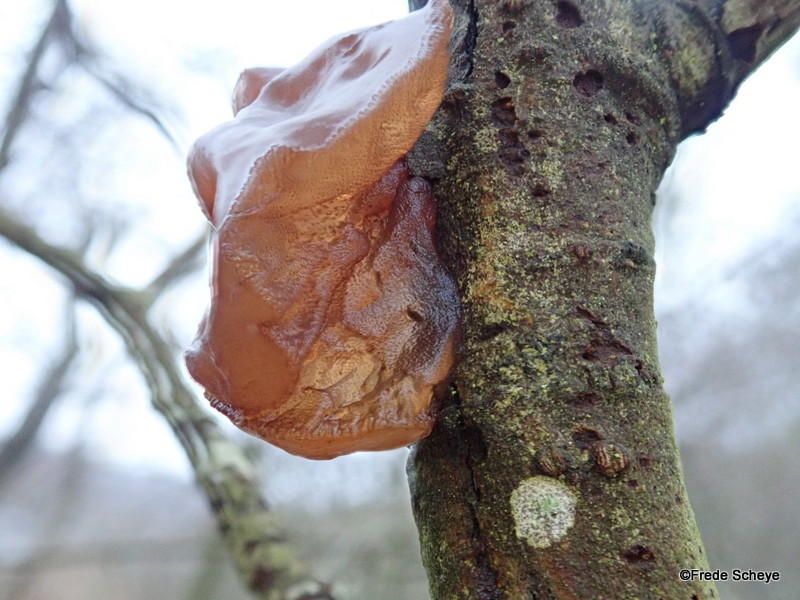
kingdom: Fungi
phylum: Basidiomycota
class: Agaricomycetes
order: Auriculariales
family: Auriculariaceae
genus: Exidia
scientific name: Exidia recisa
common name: pile-bævretop
